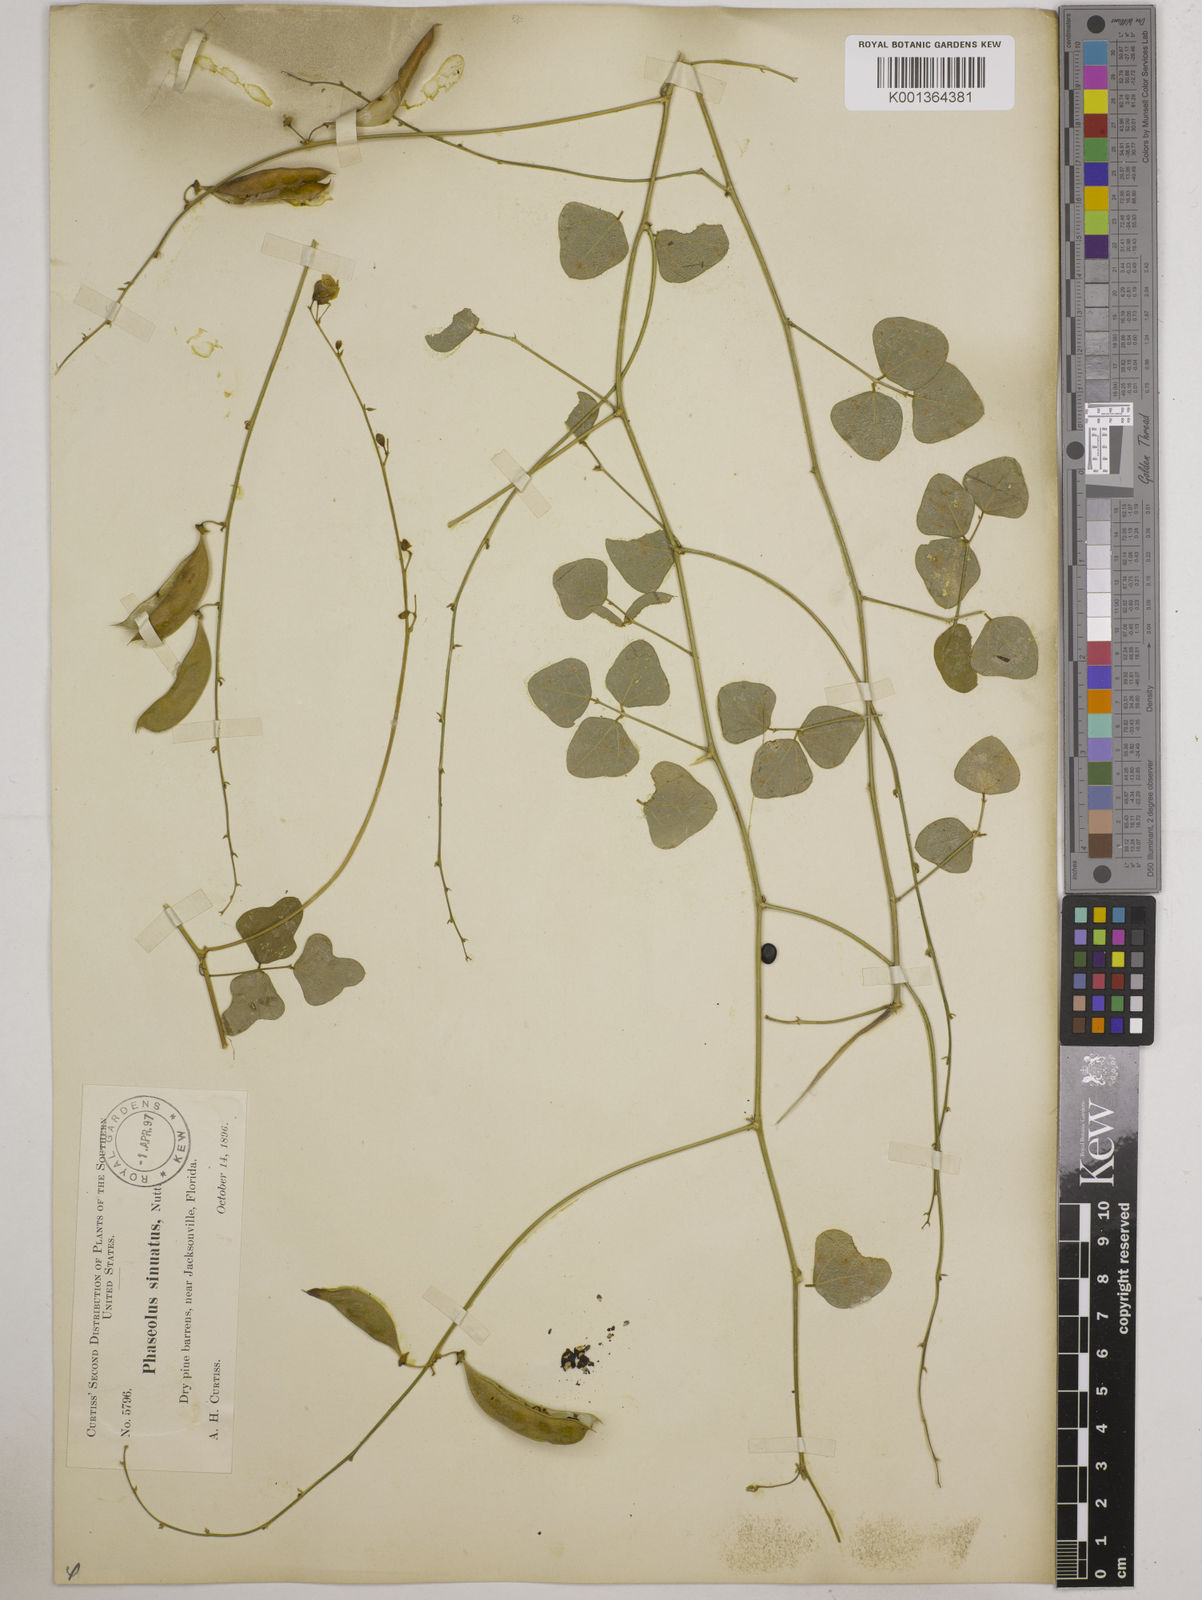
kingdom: Plantae
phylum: Tracheophyta
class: Magnoliopsida
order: Fabales
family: Fabaceae
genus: Phaseolus
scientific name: Phaseolus
